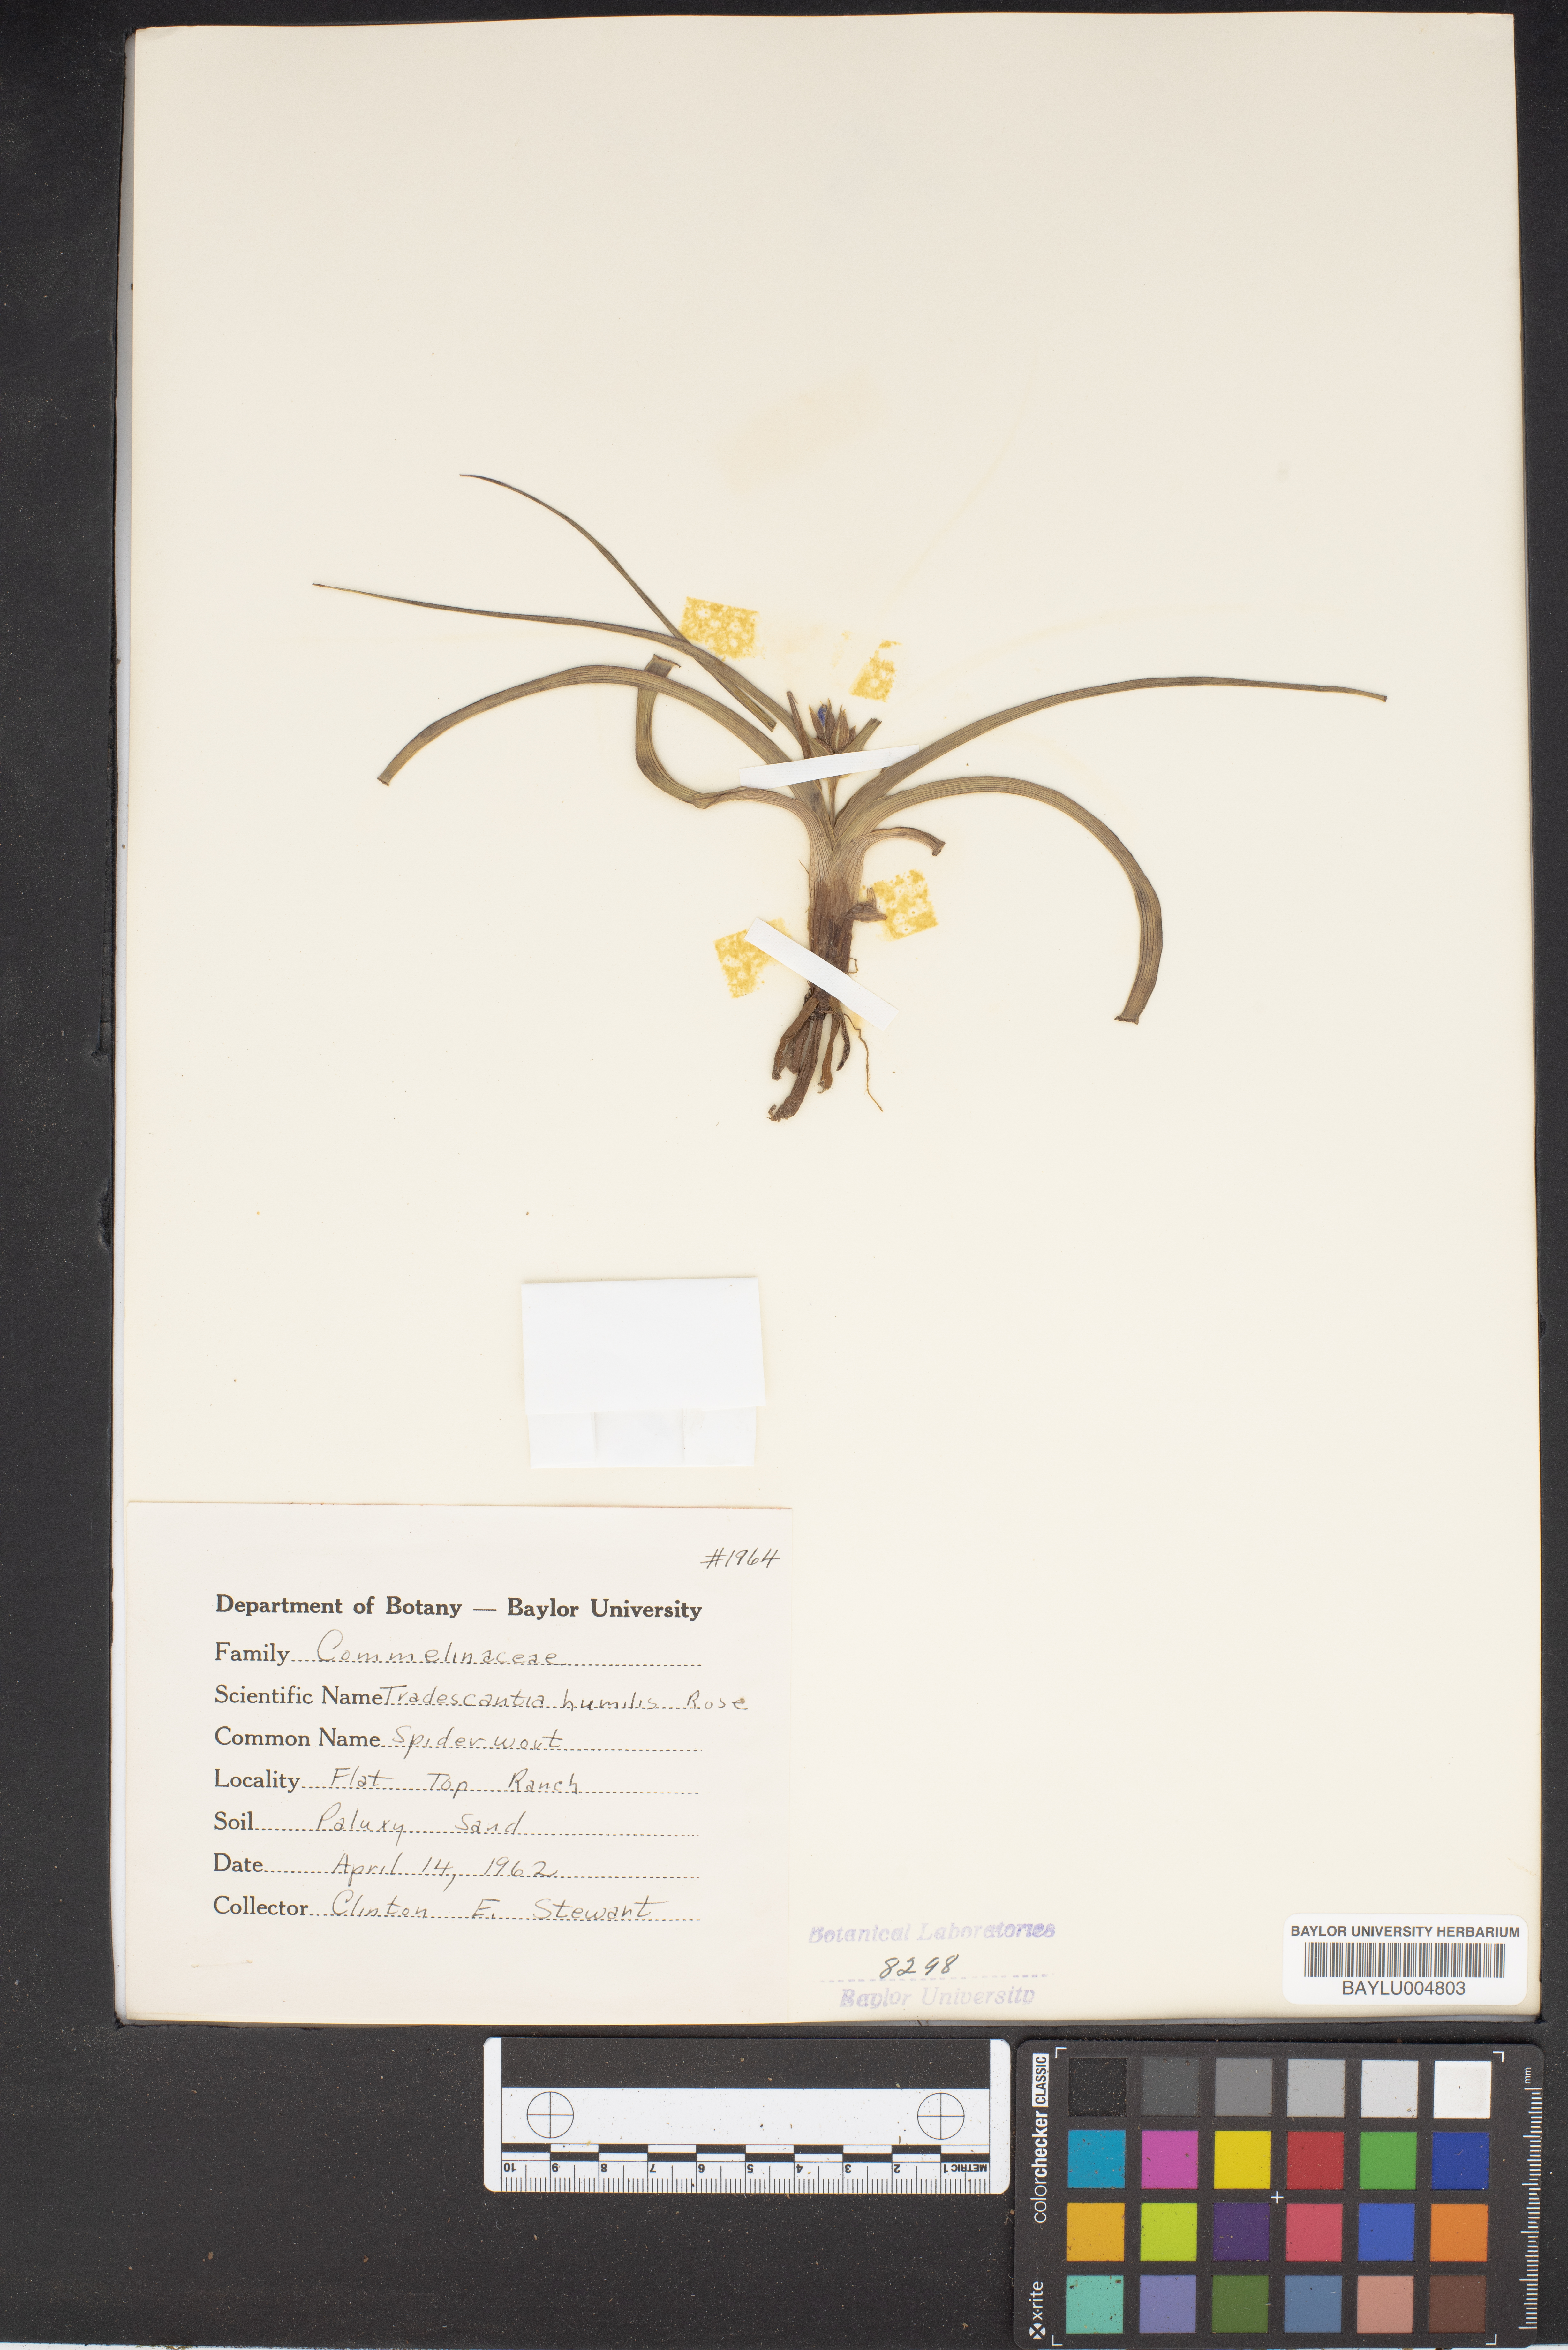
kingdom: Plantae
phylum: Tracheophyta
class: Liliopsida
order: Commelinales
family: Commelinaceae
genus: Tradescantia
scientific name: Tradescantia humilis
